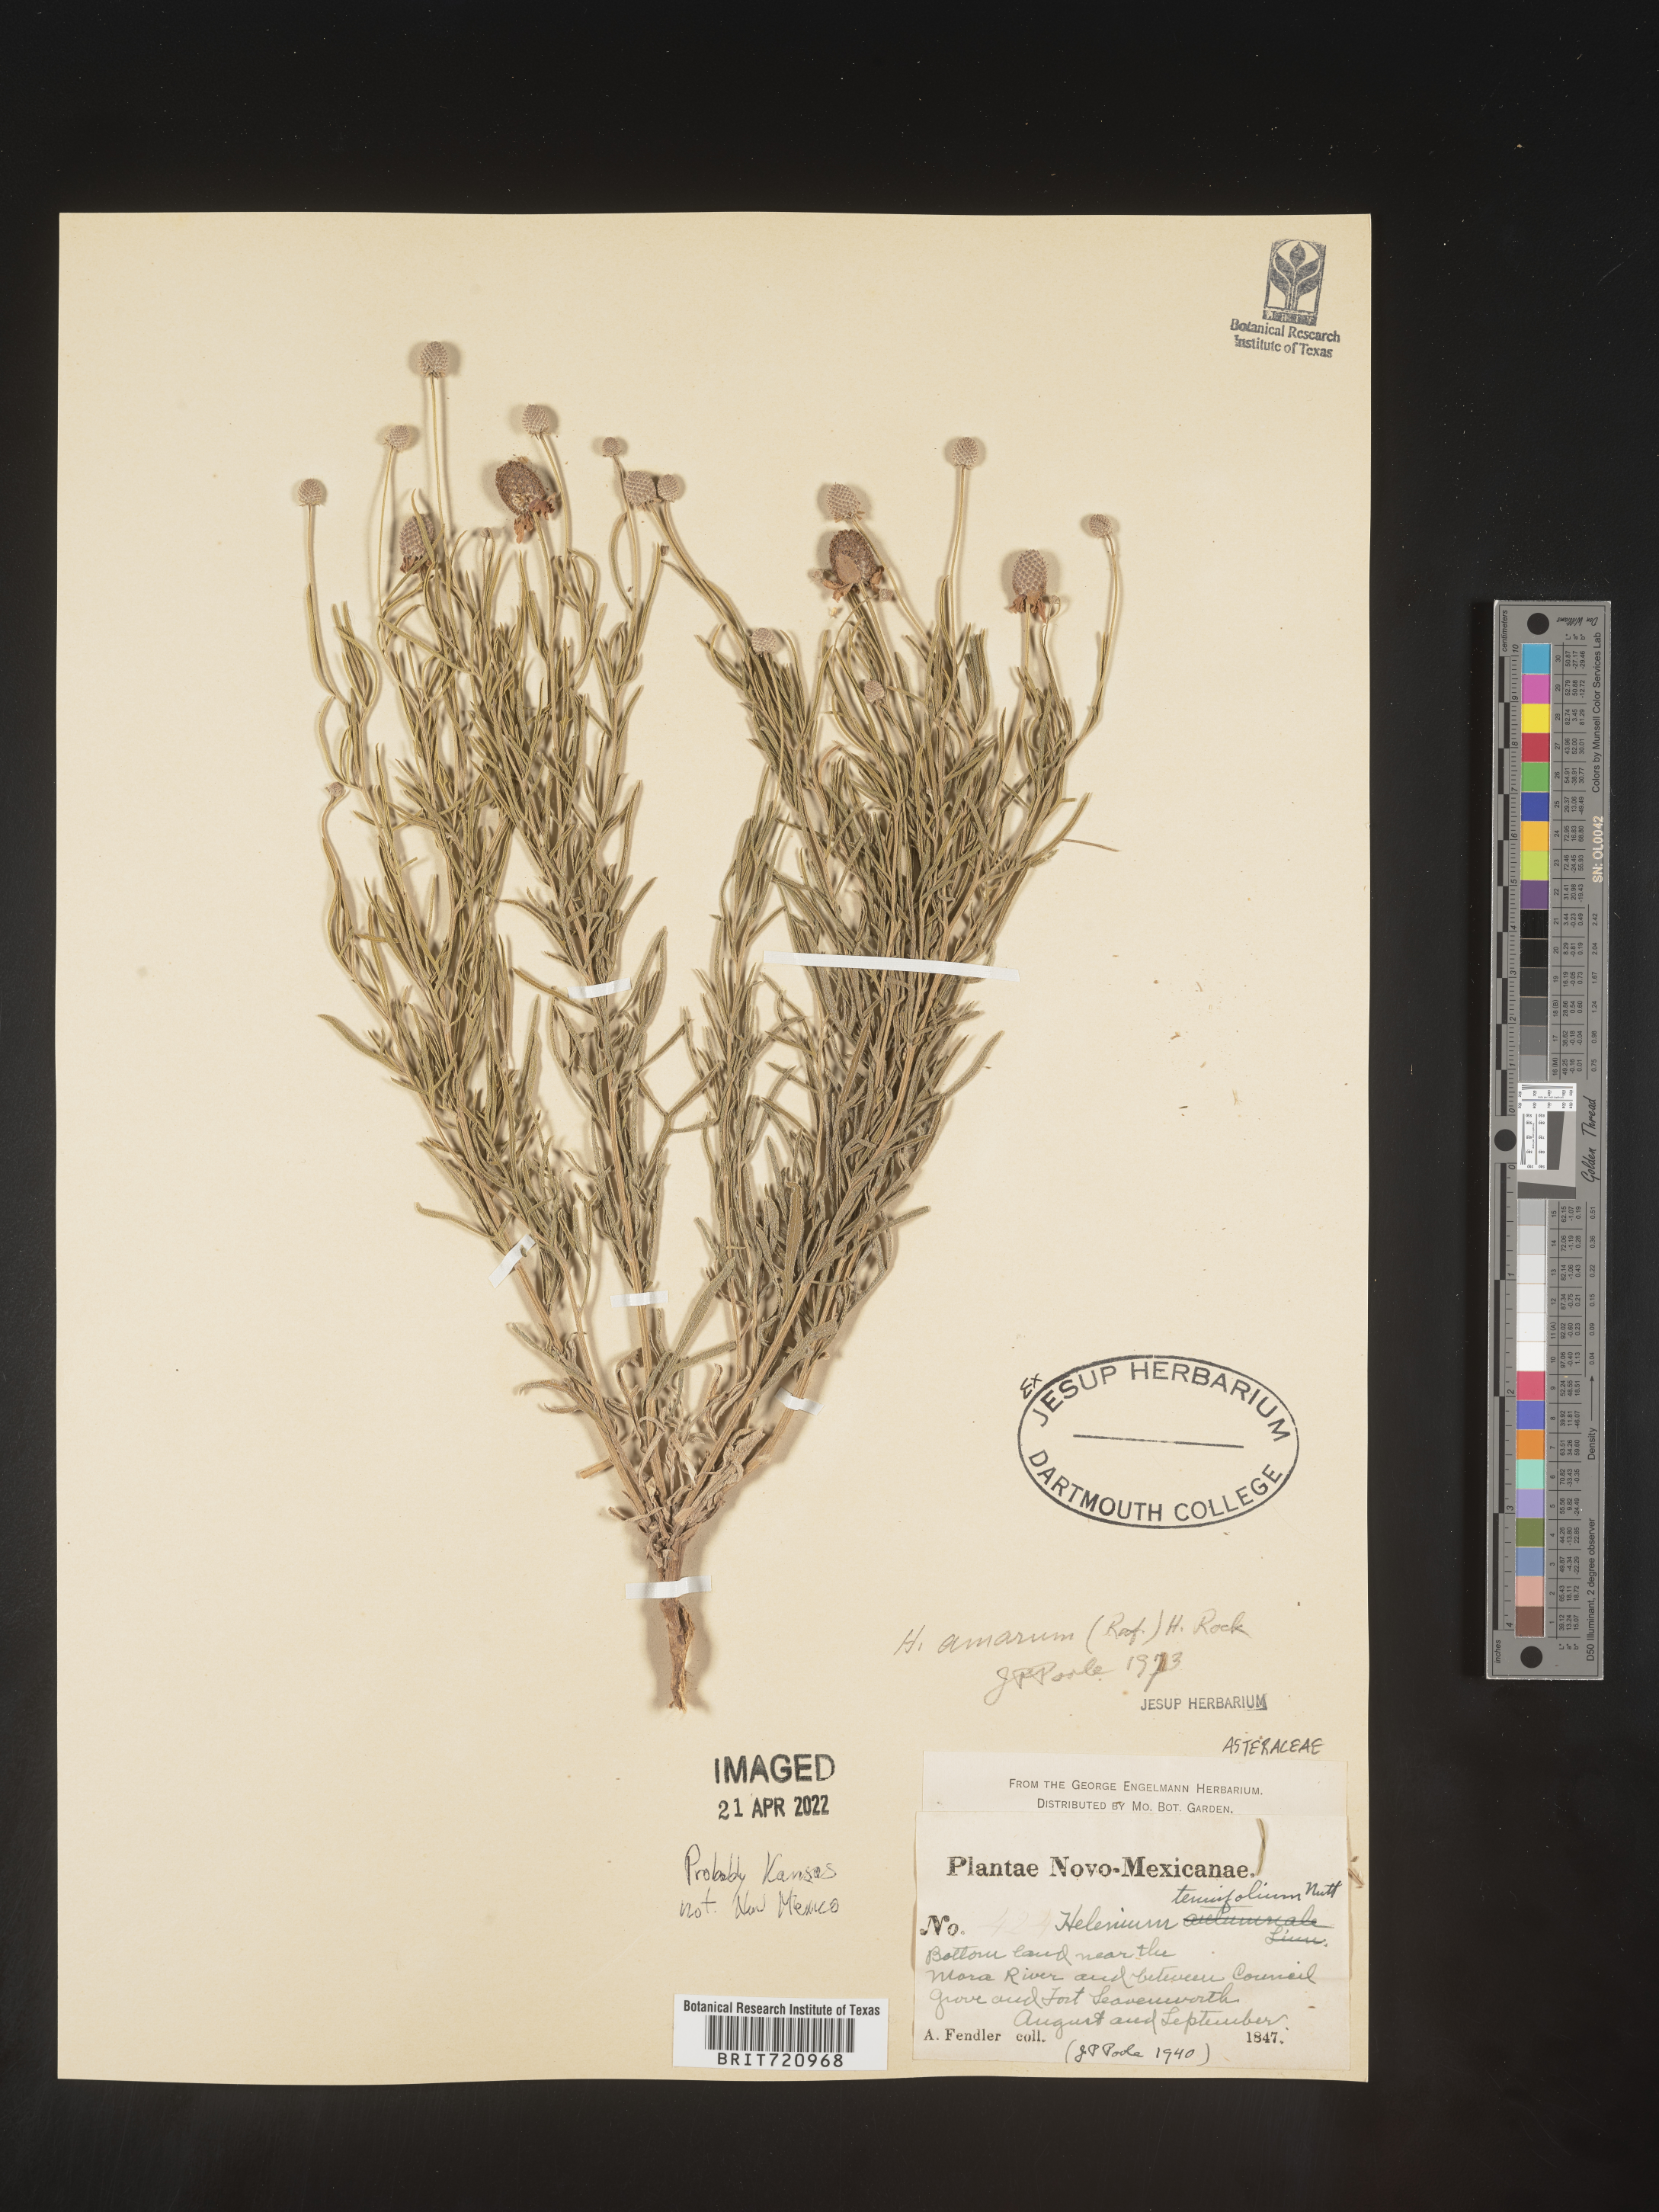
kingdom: Plantae
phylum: Tracheophyta
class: Magnoliopsida
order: Asterales
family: Asteraceae
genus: Helenium
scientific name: Helenium amarum
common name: Bitter sneezeweed
